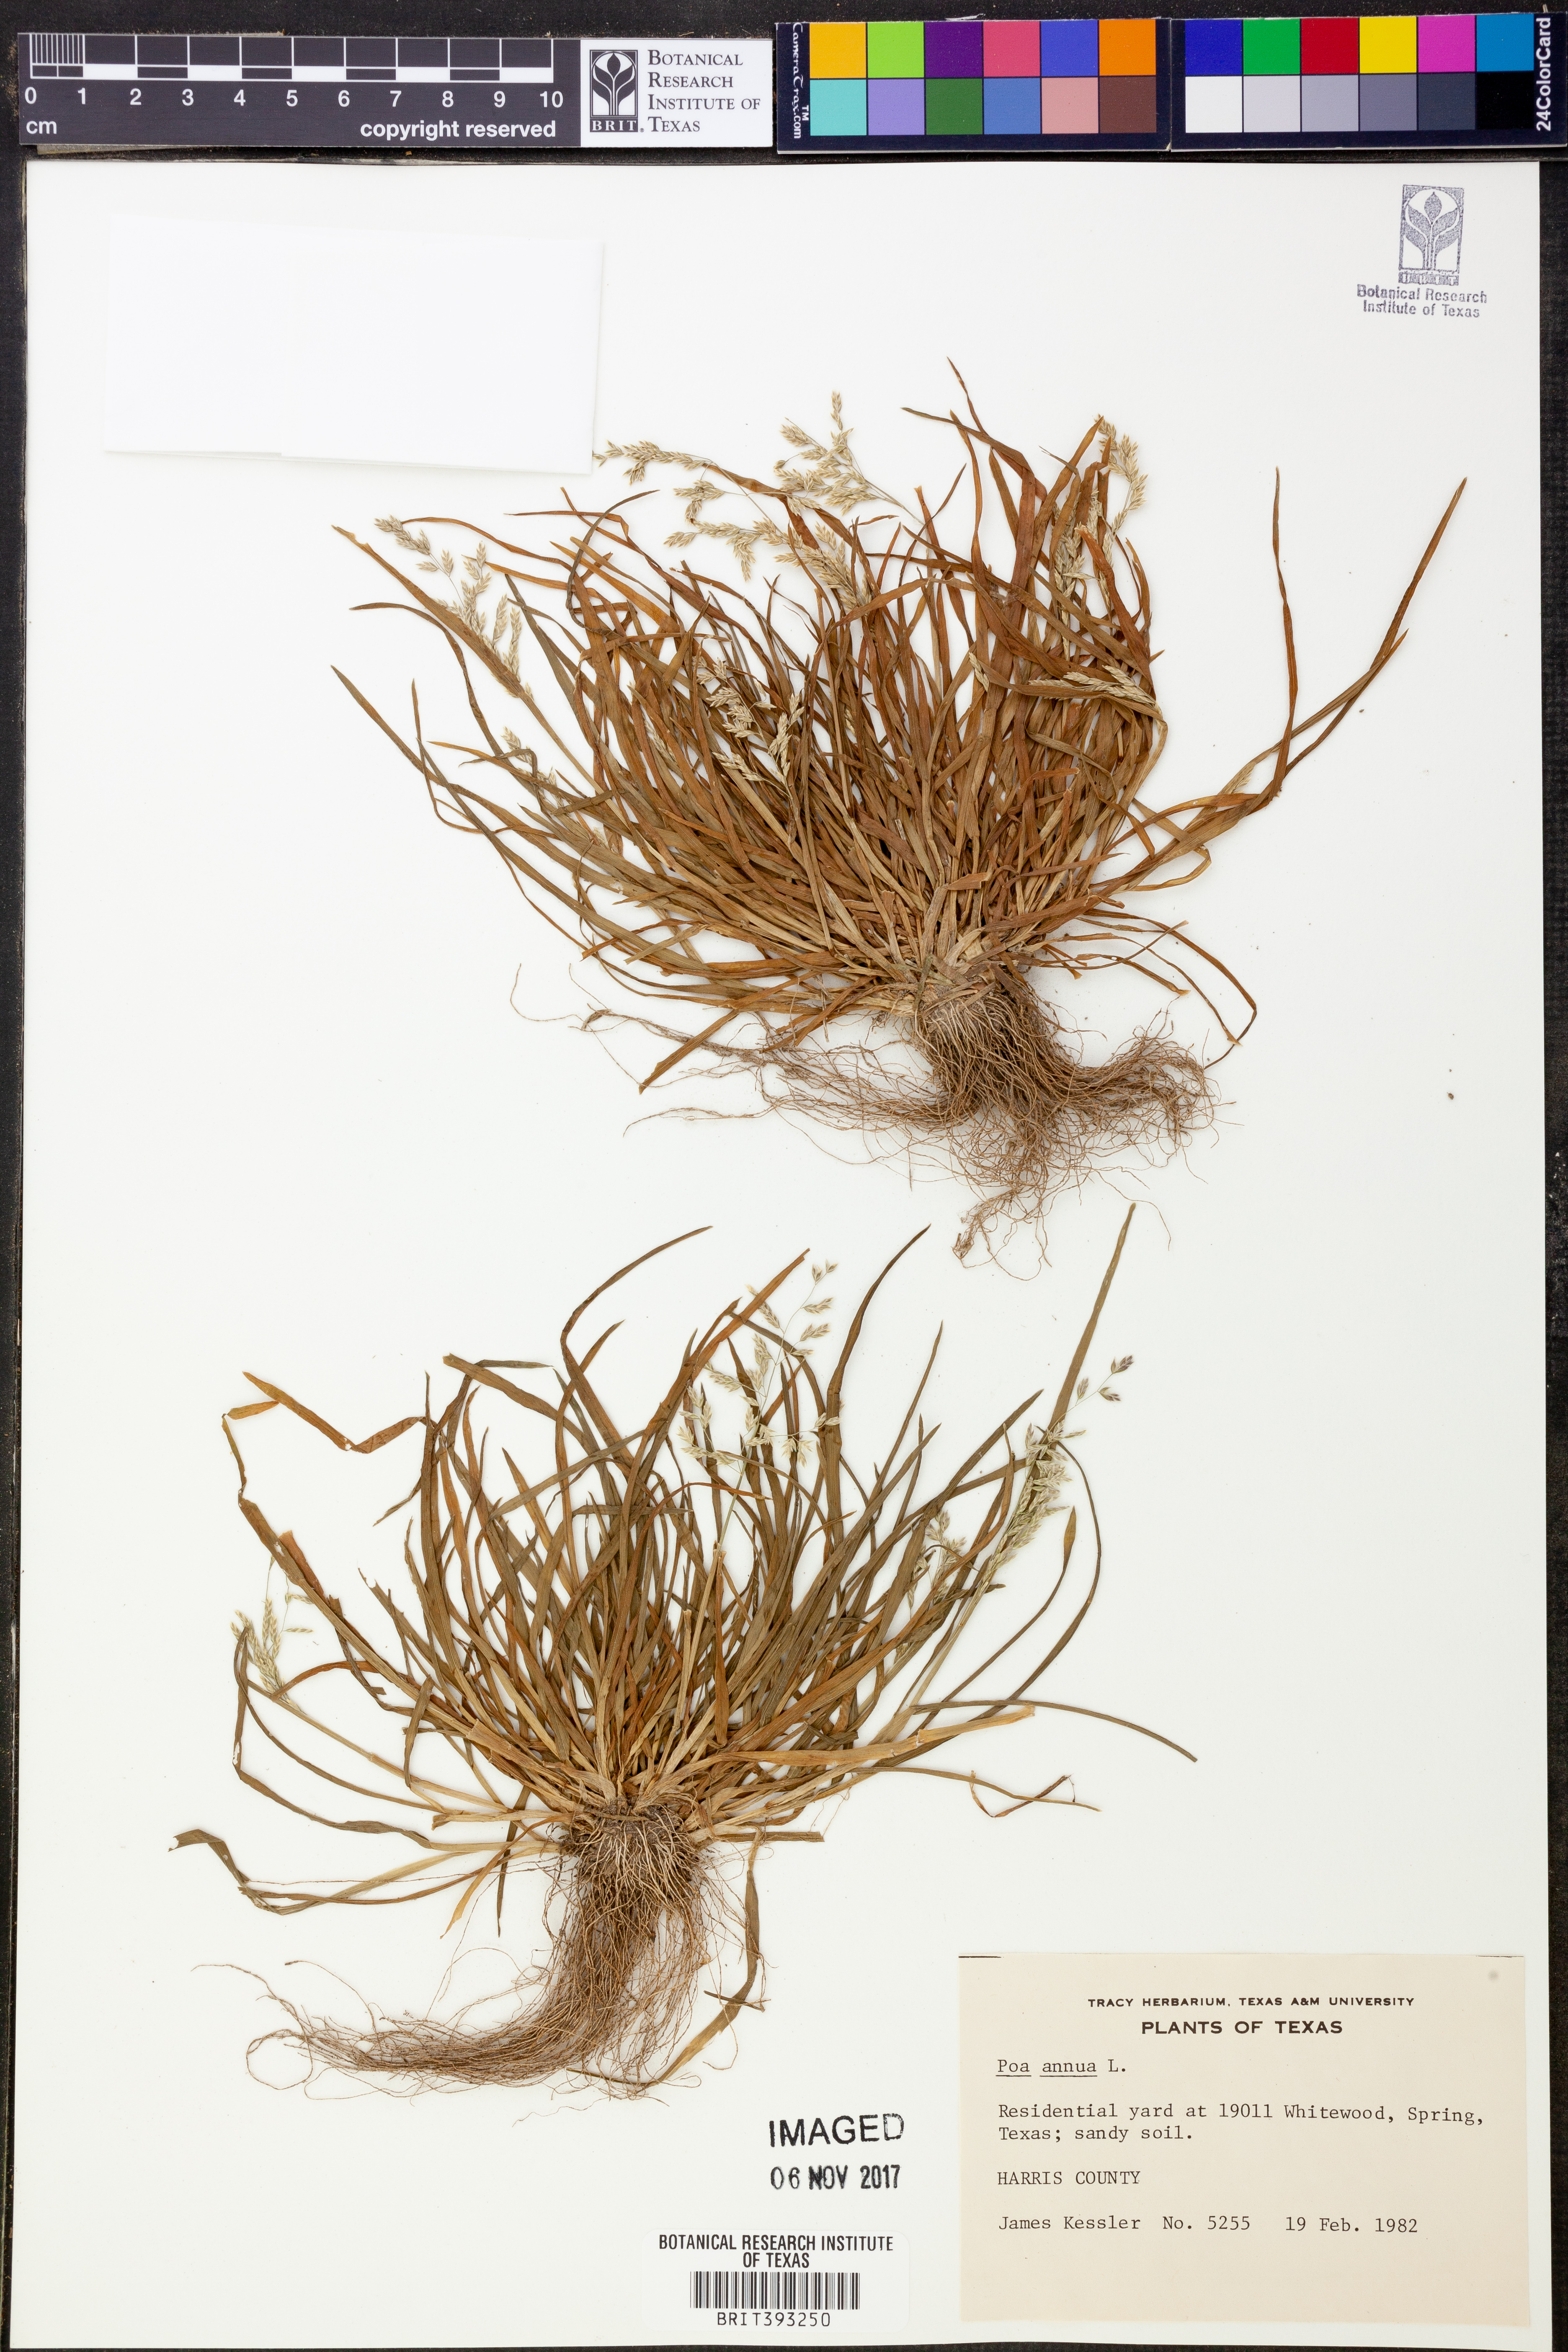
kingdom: Plantae
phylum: Tracheophyta
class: Liliopsida
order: Poales
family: Poaceae
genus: Poa
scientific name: Poa annua
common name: Annual bluegrass
